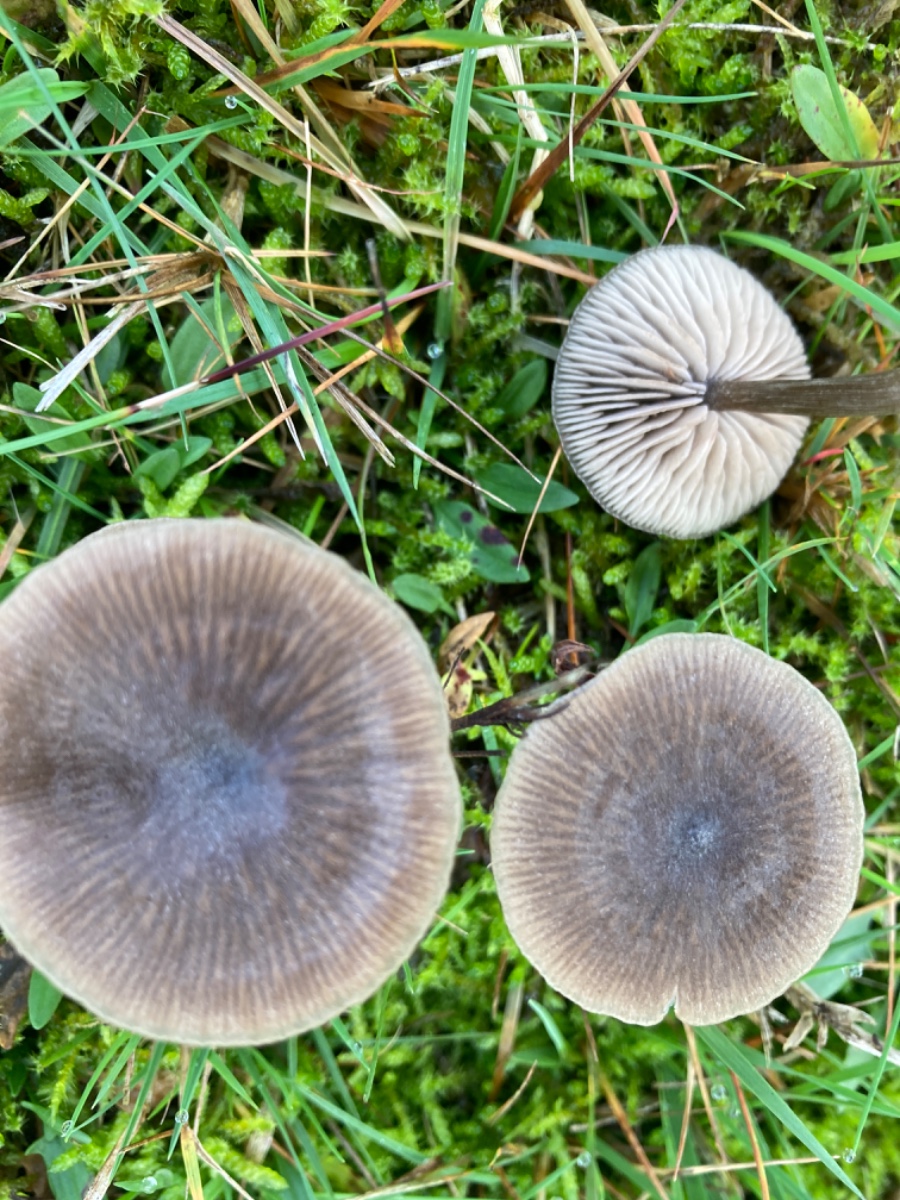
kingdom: Fungi
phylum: Basidiomycota
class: Agaricomycetes
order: Agaricales
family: Entolomataceae
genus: Entoloma
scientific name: Entoloma
